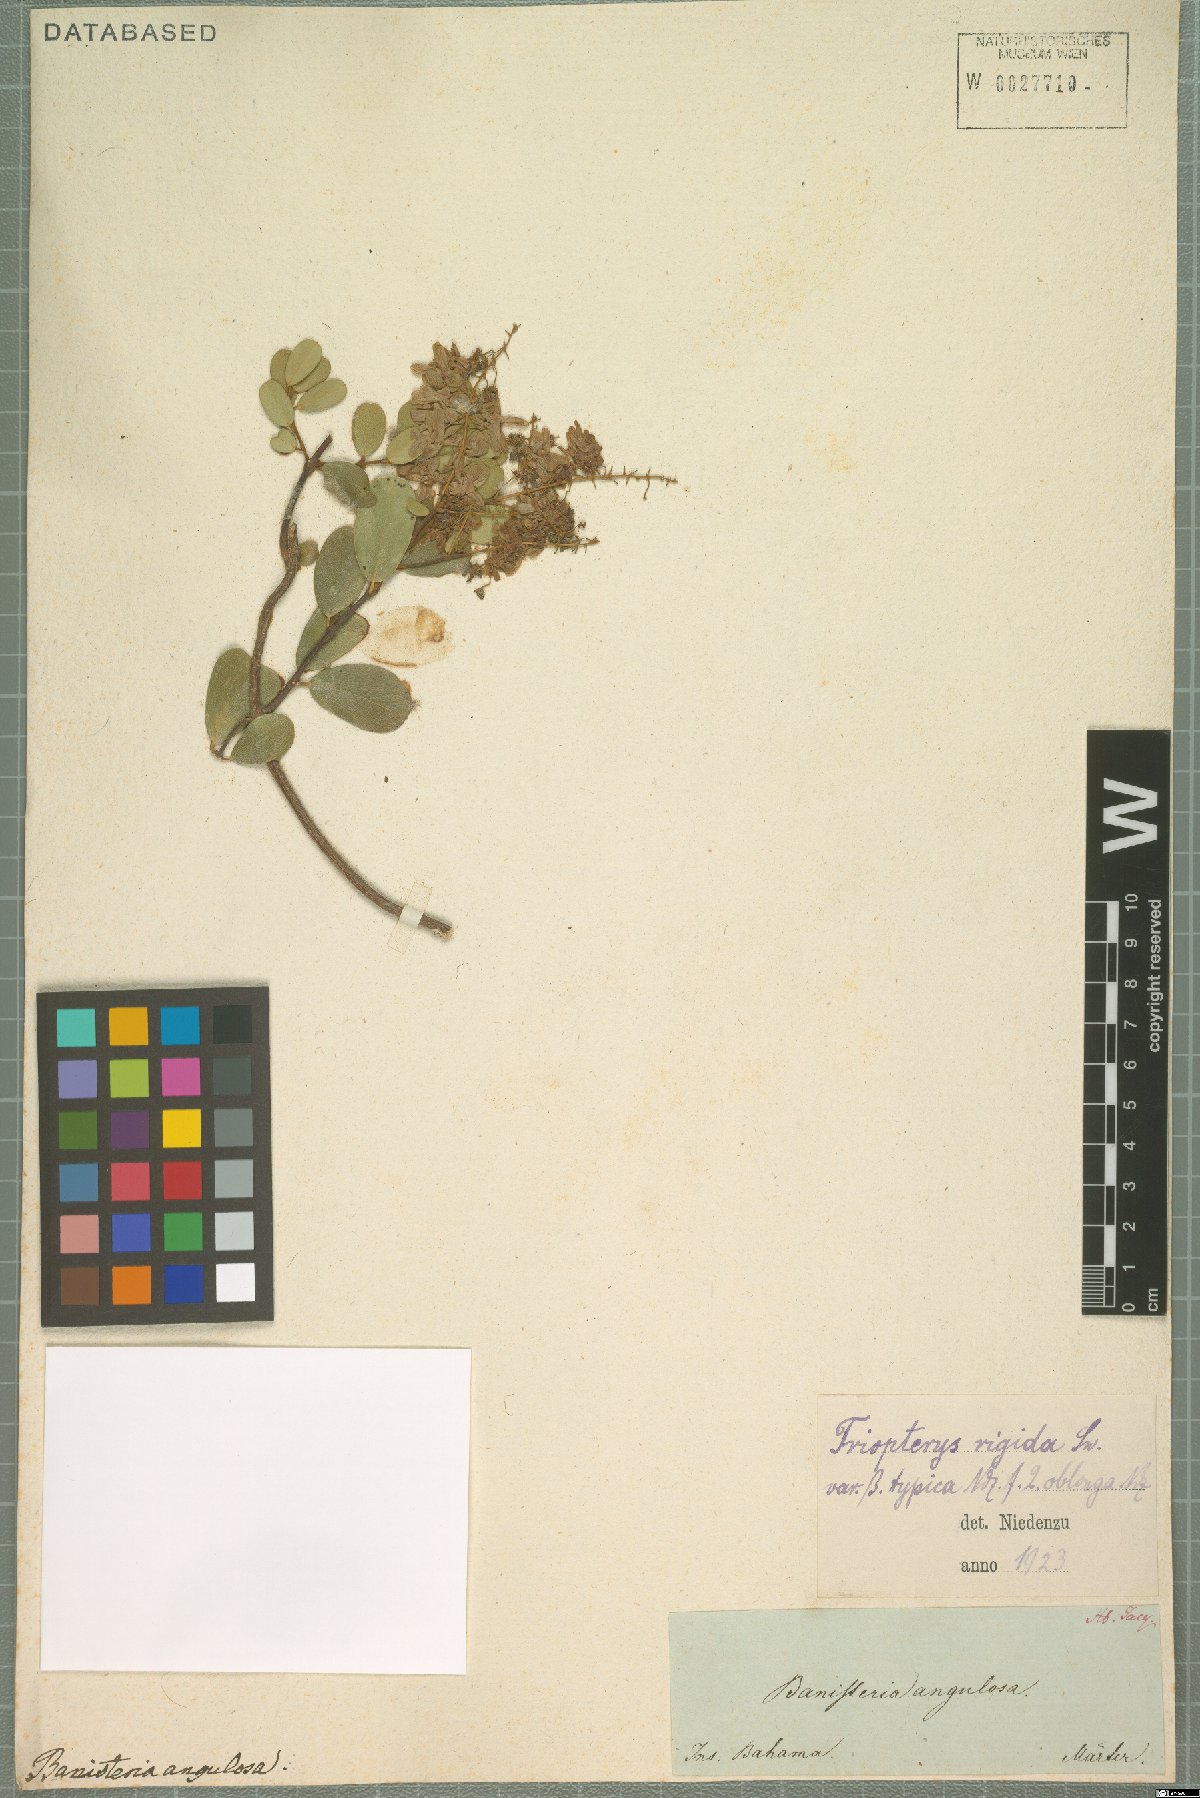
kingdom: Plantae
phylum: Tracheophyta
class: Magnoliopsida
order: Malpighiales
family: Malpighiaceae
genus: Mascagnia
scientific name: Mascagnia lucida
